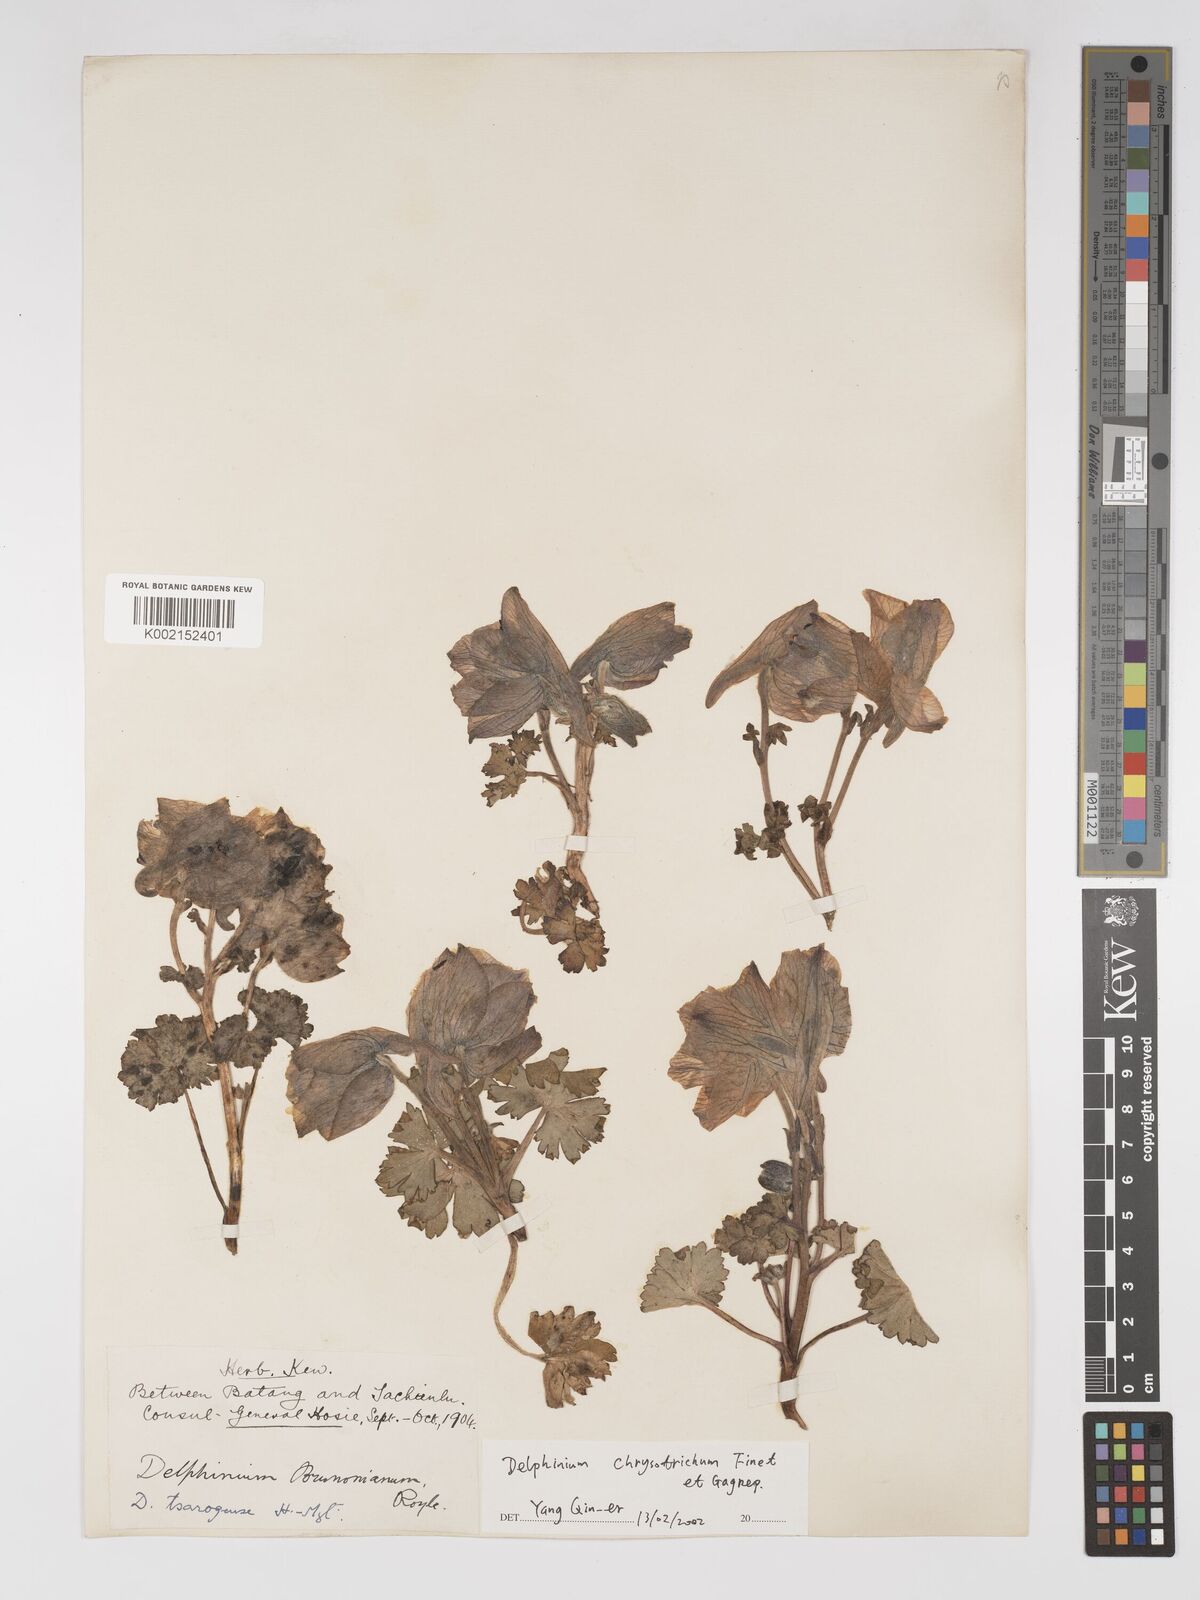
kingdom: Plantae
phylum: Tracheophyta
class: Magnoliopsida
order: Ranunculales
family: Ranunculaceae
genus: Delphinium
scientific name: Delphinium chrysotrichum
